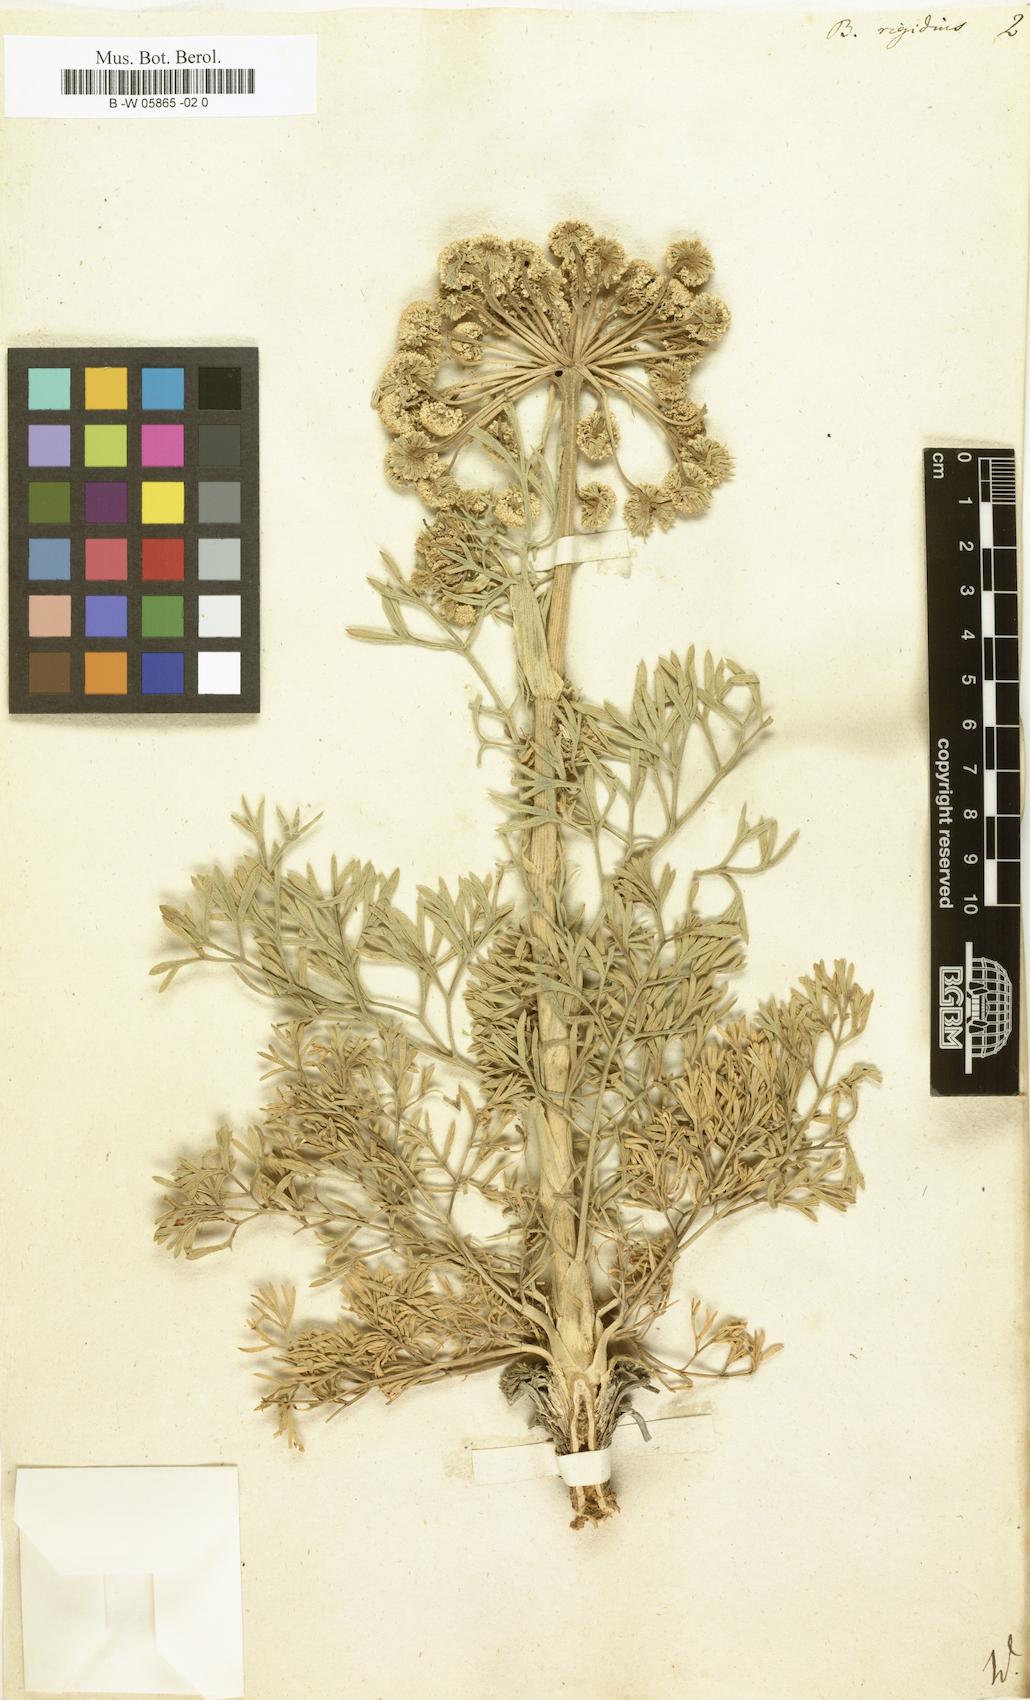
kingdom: Plantae
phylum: Tracheophyta
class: Magnoliopsida
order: Apiales
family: Apiaceae
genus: Ferula
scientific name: Ferula communis
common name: Giant fennel
